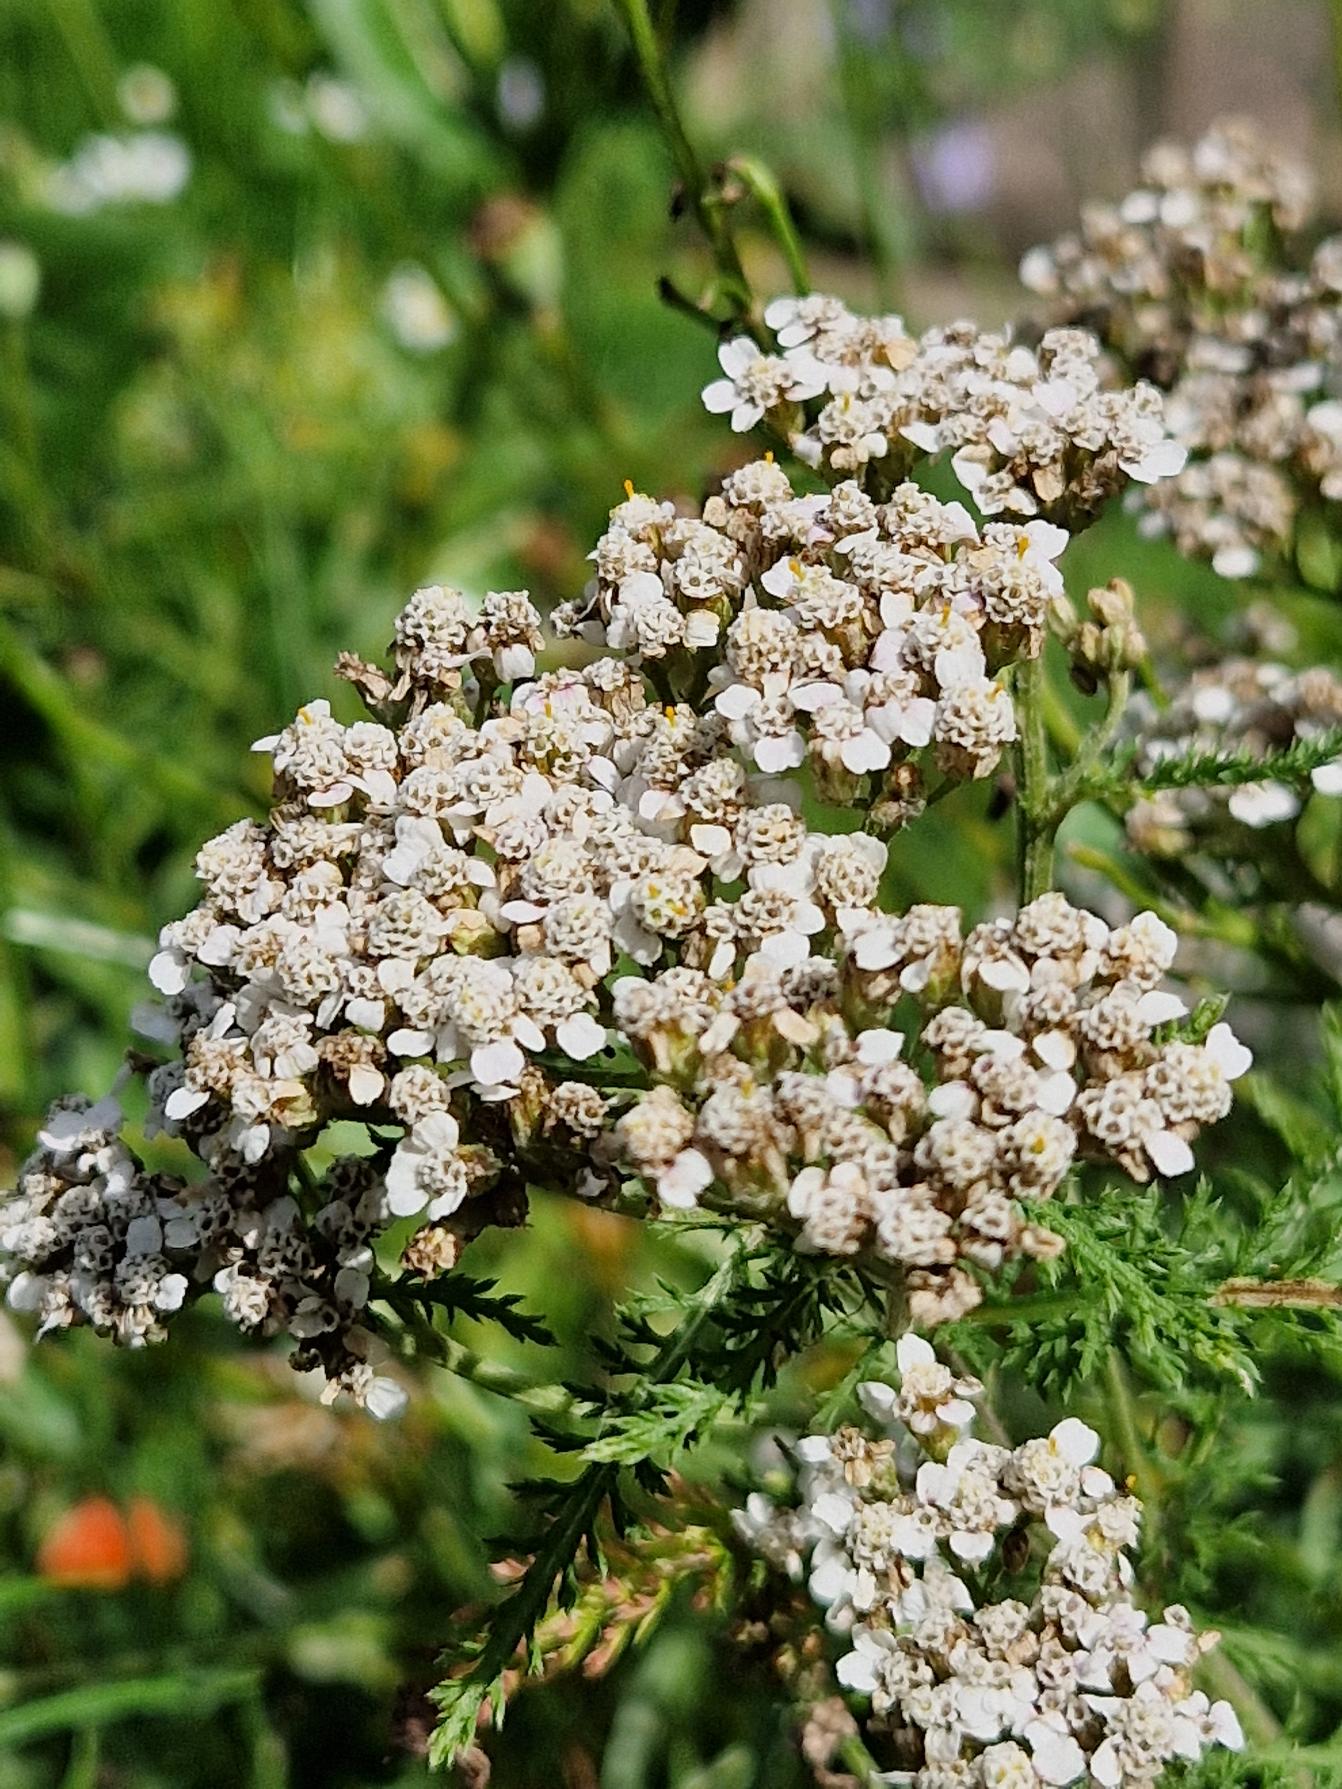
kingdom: Plantae
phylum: Tracheophyta
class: Magnoliopsida
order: Asterales
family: Asteraceae
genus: Achillea
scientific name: Achillea millefolium
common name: Almindelig røllike
